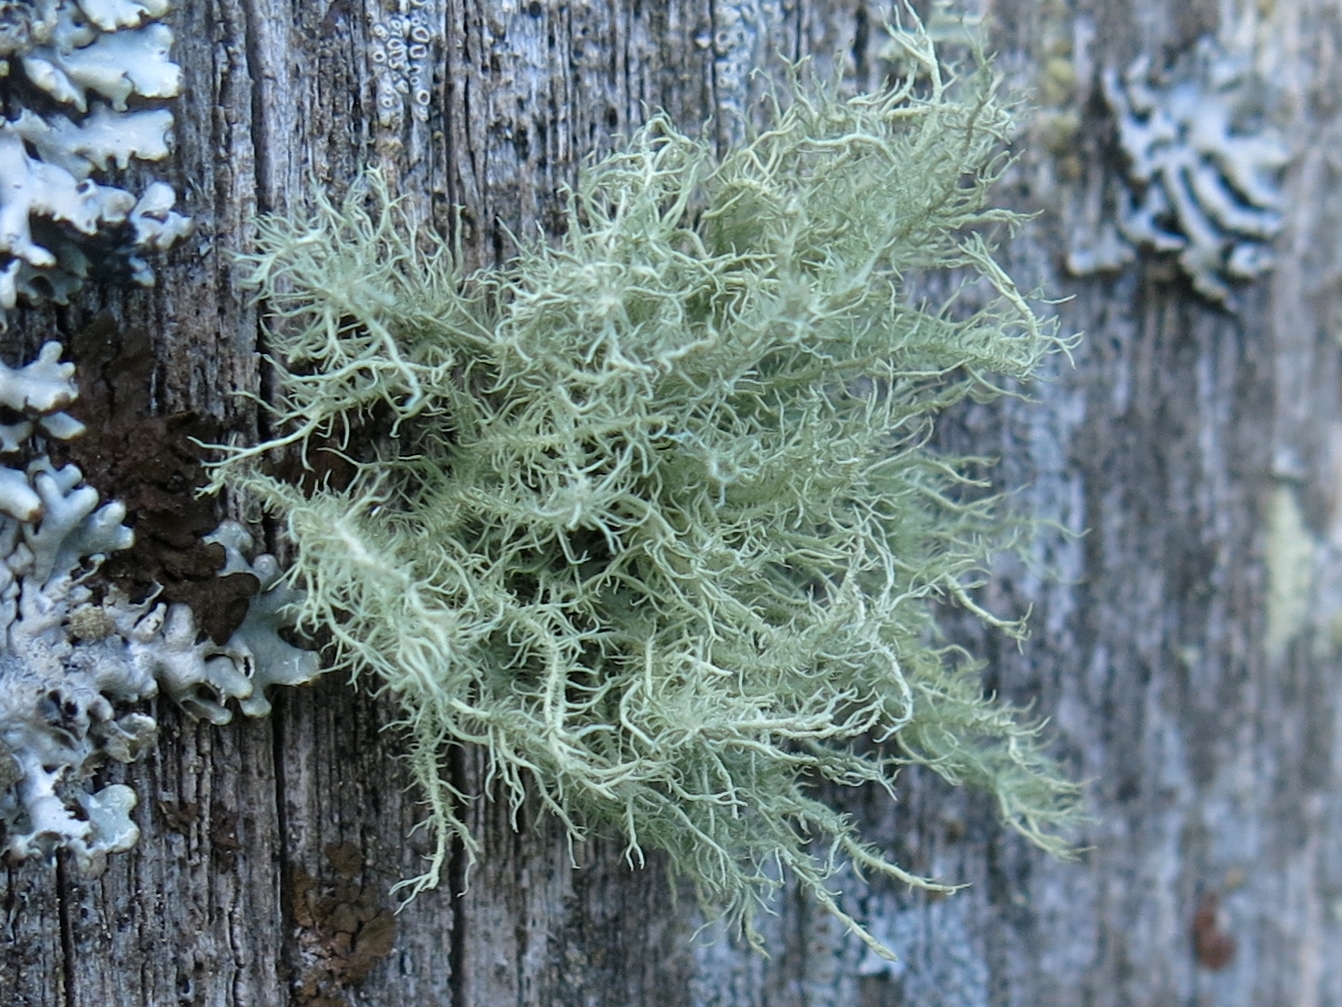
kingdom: Fungi
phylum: Ascomycota
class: Lecanoromycetes
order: Lecanorales
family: Parmeliaceae
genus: Usnea
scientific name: Usnea hirta
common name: liden skæglav
